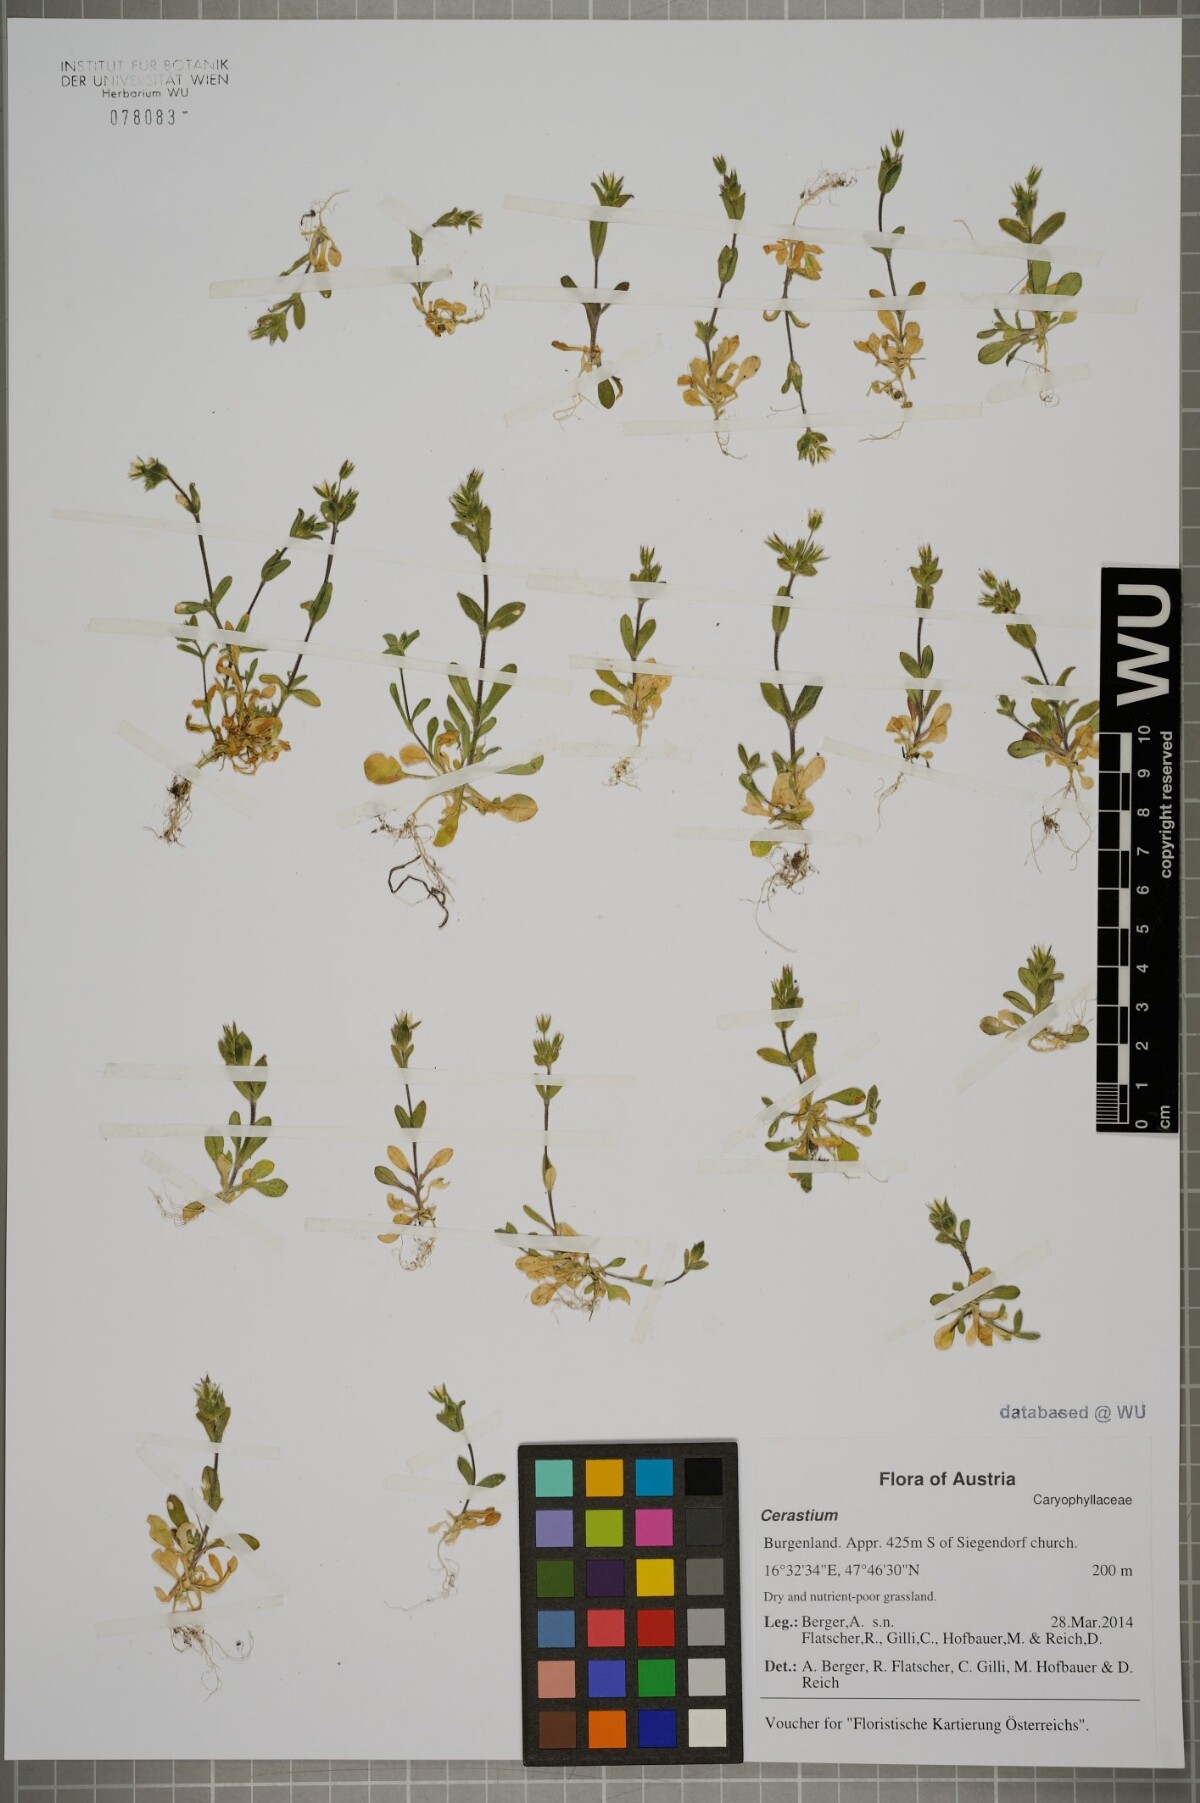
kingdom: Plantae
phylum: Tracheophyta
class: Magnoliopsida
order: Caryophyllales
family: Caryophyllaceae
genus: Cerastium
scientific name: Cerastium
